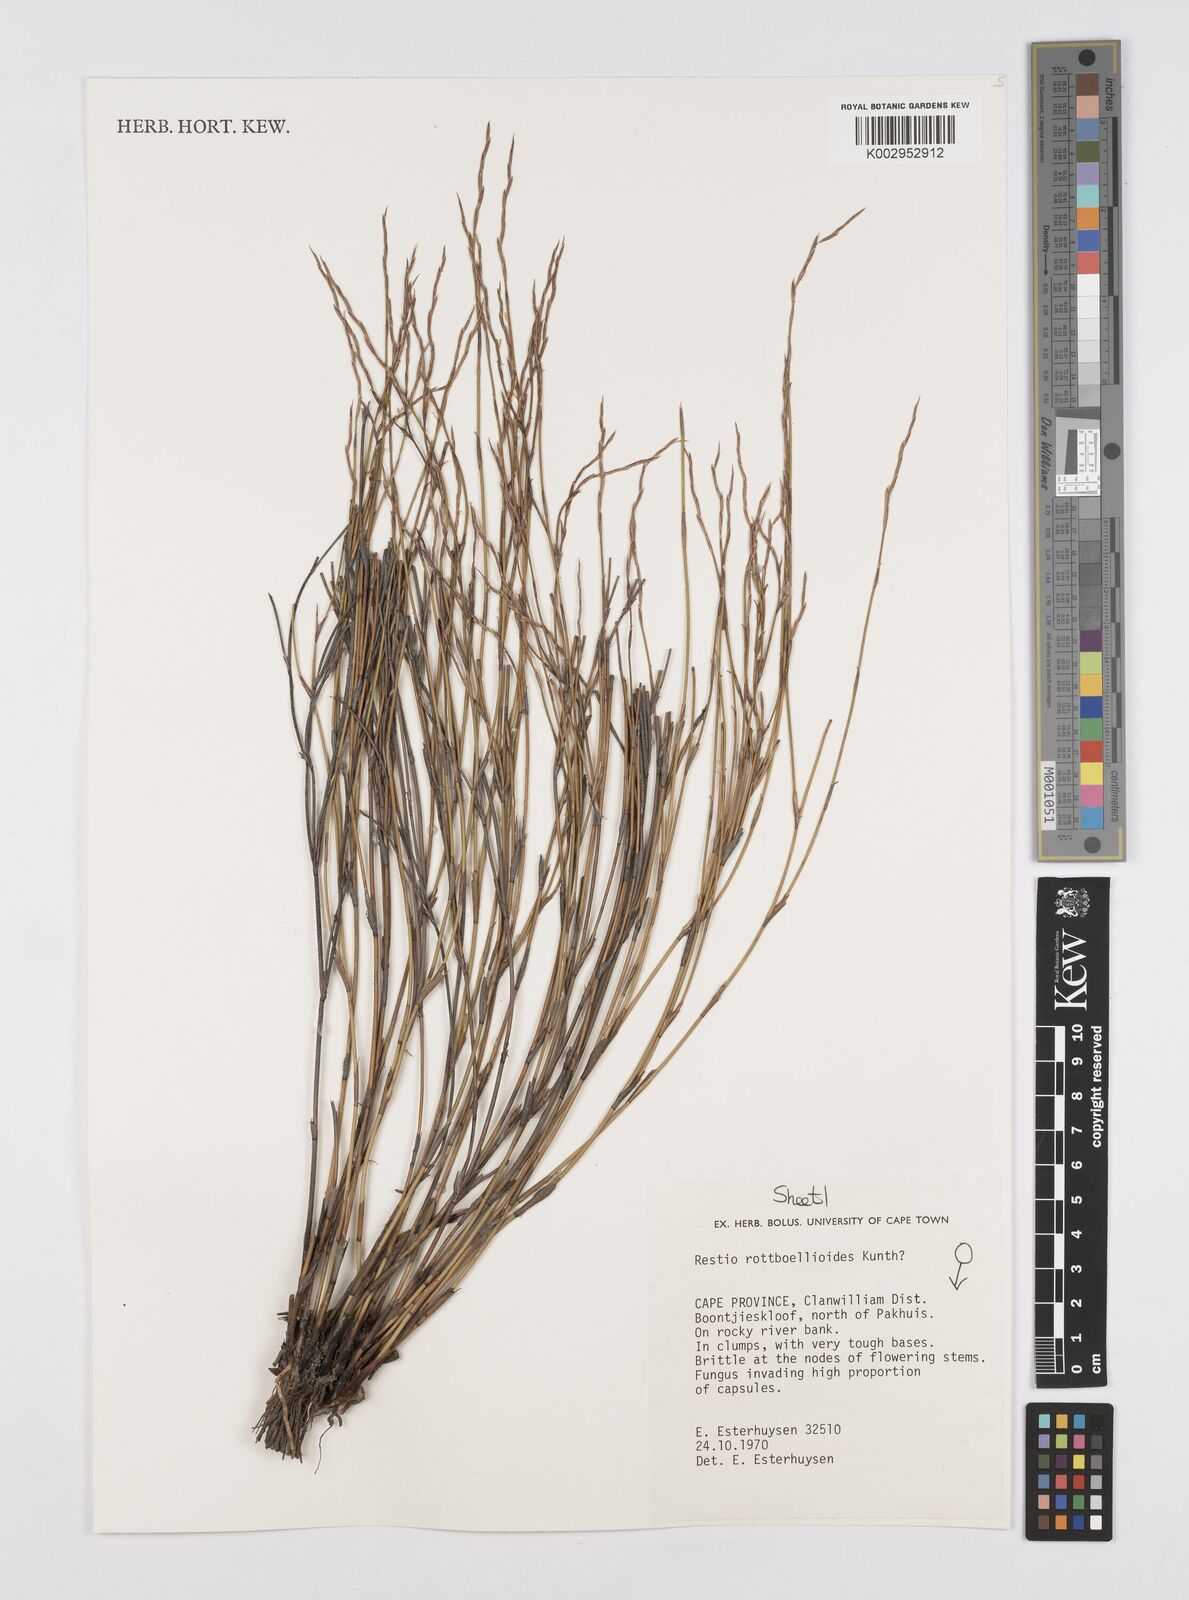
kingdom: Plantae
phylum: Tracheophyta
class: Liliopsida
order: Poales
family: Restionaceae
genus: Restio
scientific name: Restio rottboellioides
